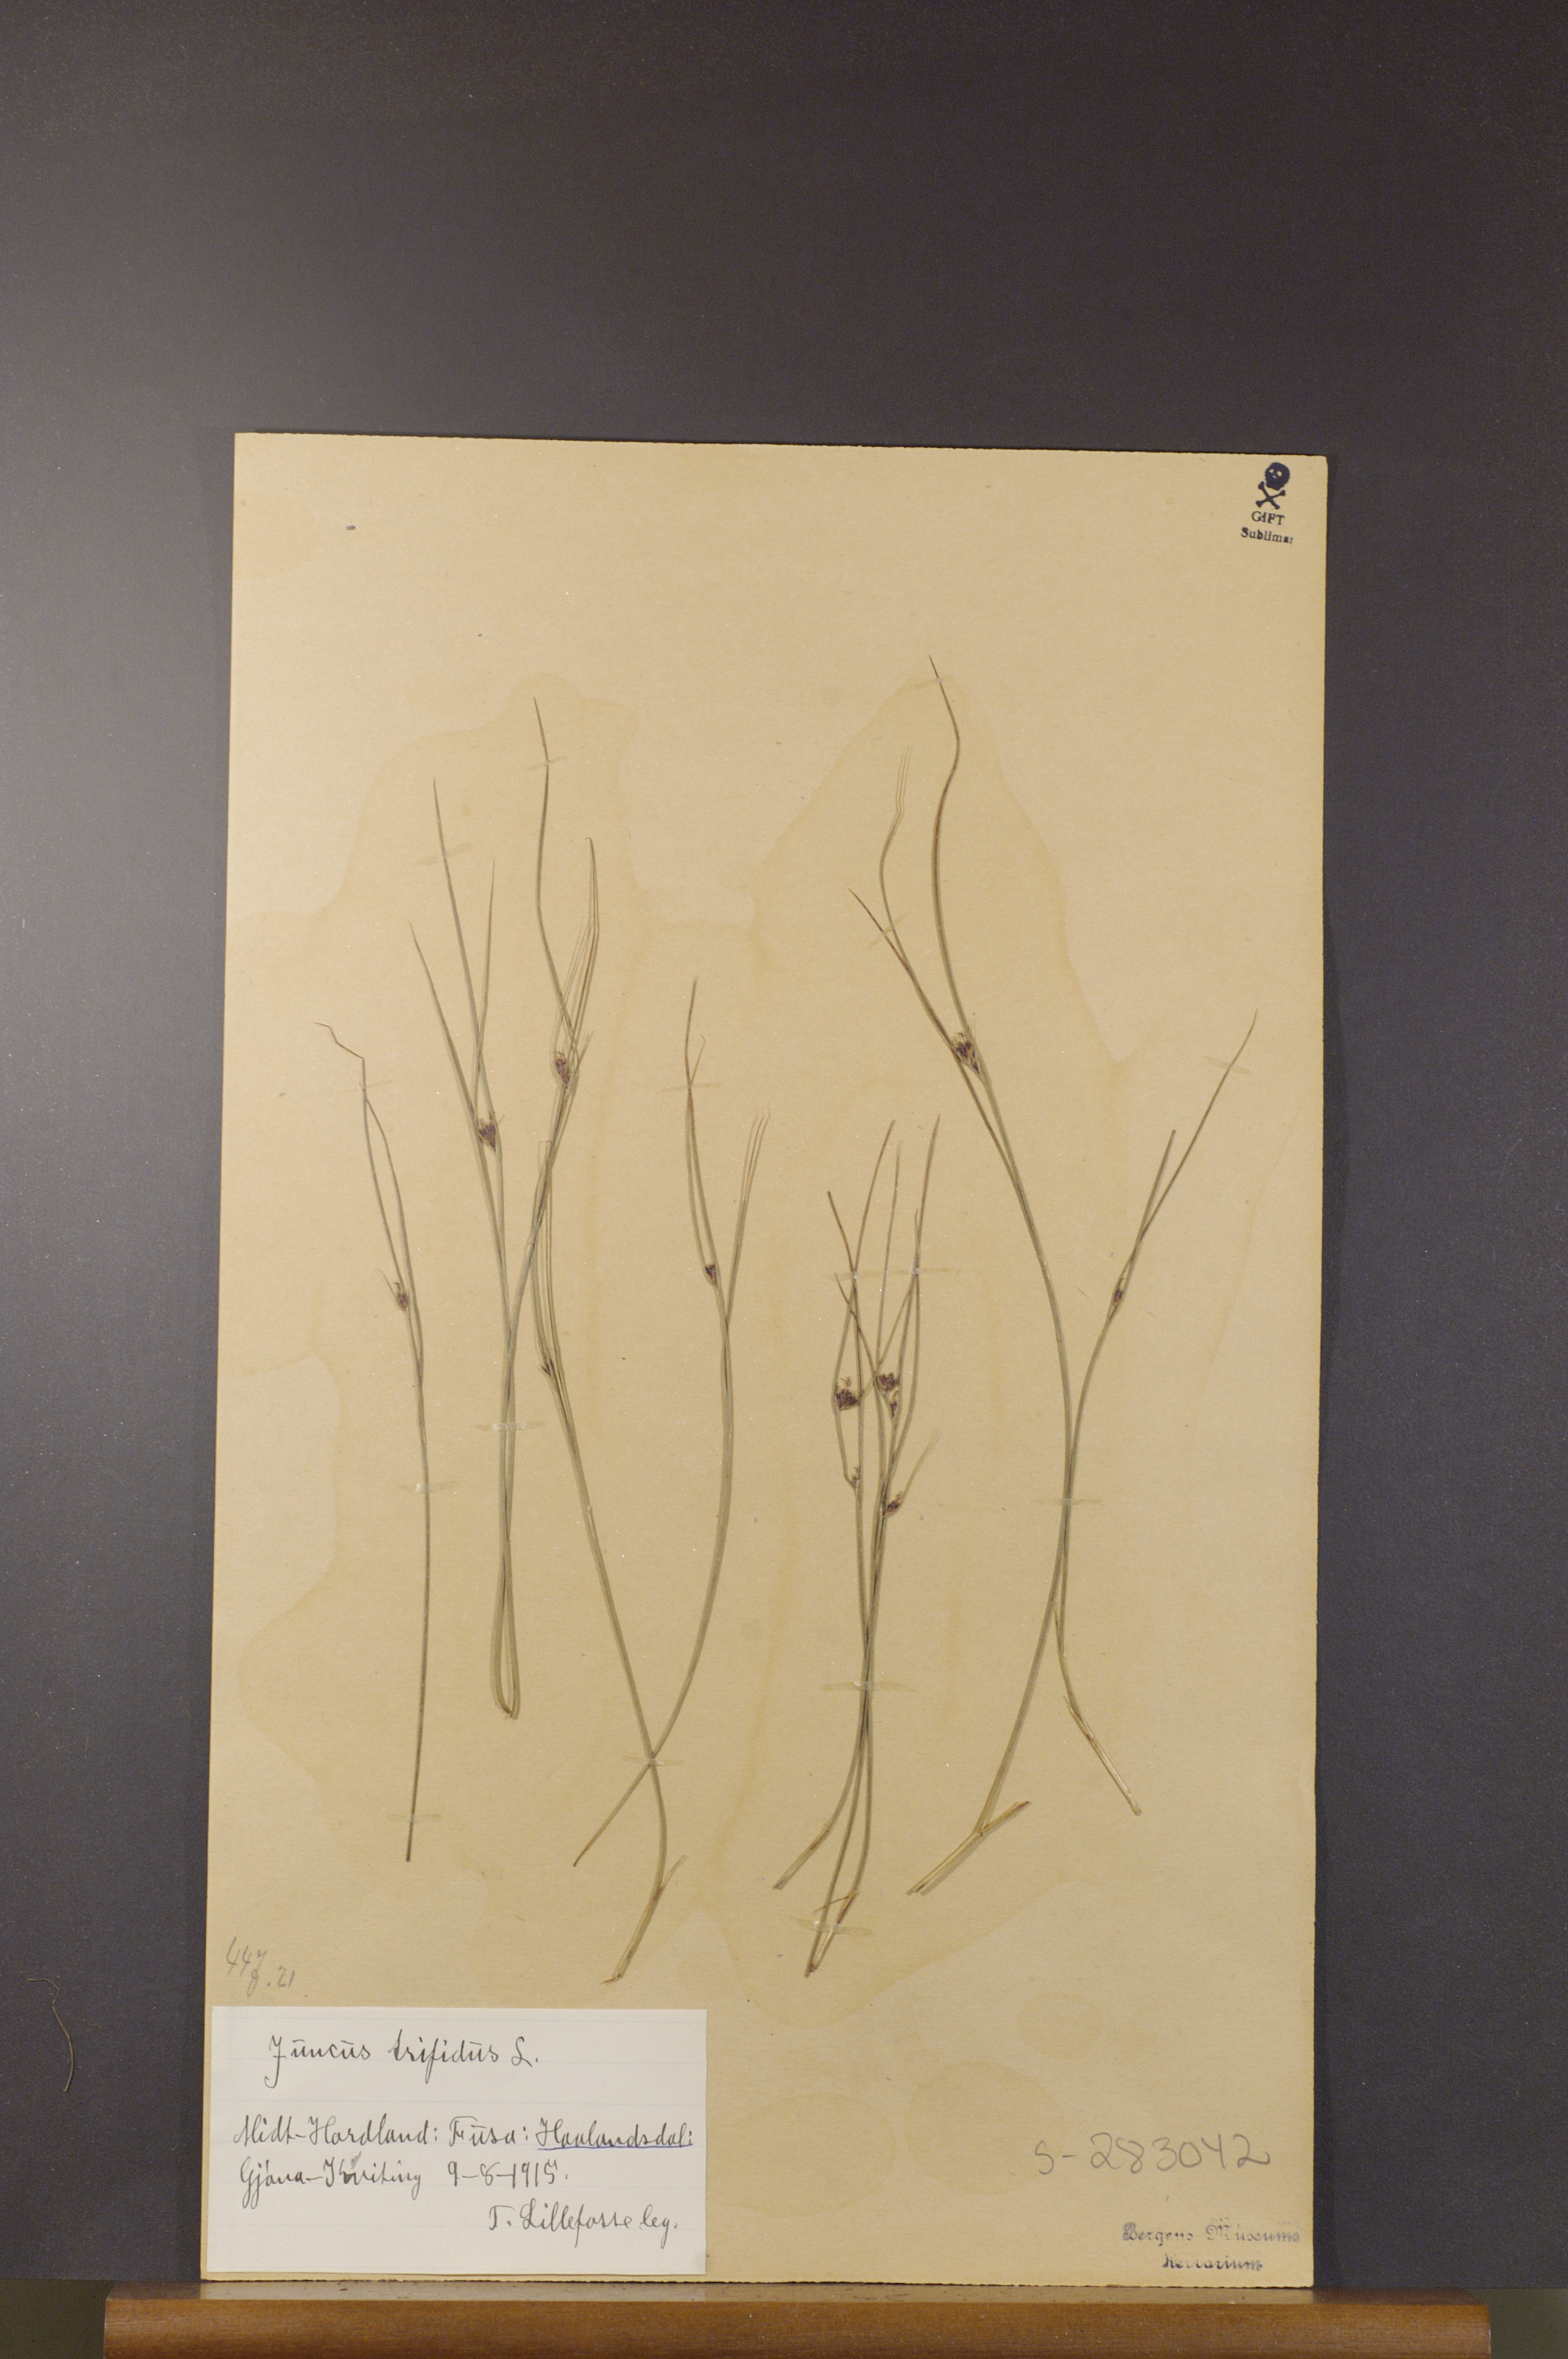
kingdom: Plantae
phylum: Tracheophyta
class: Liliopsida
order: Poales
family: Juncaceae
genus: Oreojuncus
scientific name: Oreojuncus trifidus
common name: Highland rush
